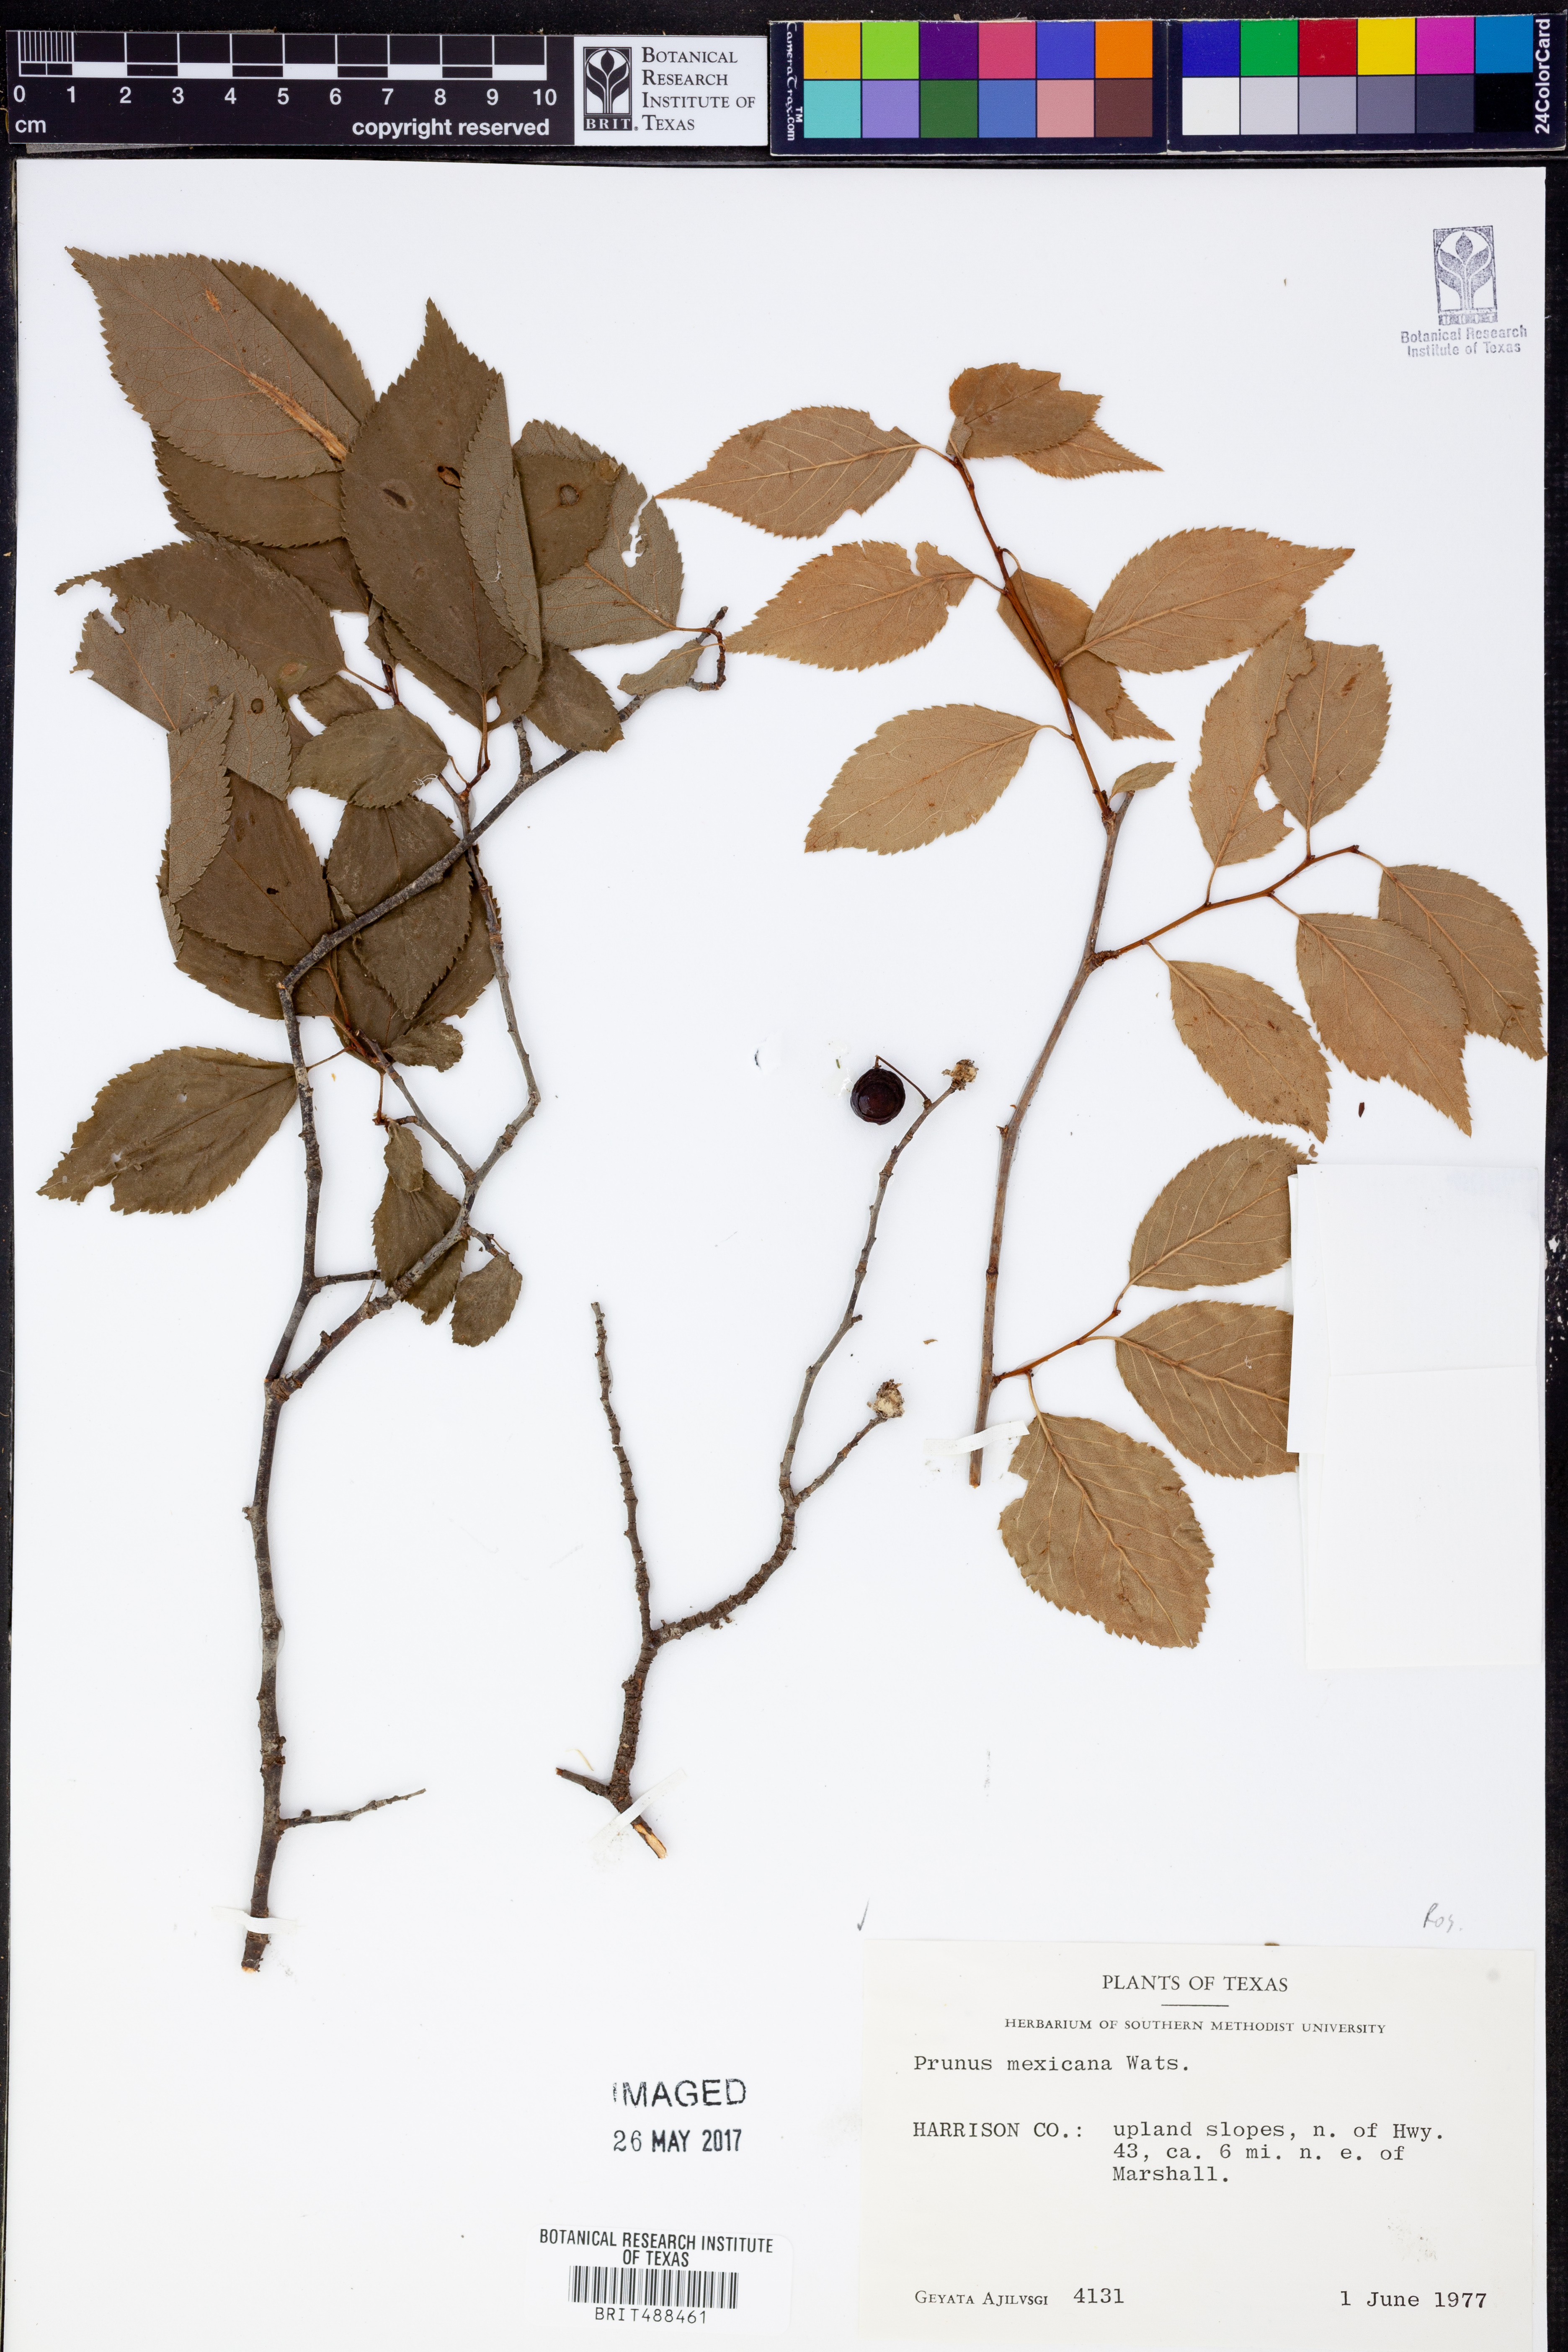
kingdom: Plantae
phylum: Tracheophyta
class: Magnoliopsida
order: Rosales
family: Rosaceae
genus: Prunus
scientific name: Prunus mexicana
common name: Mexican plum
